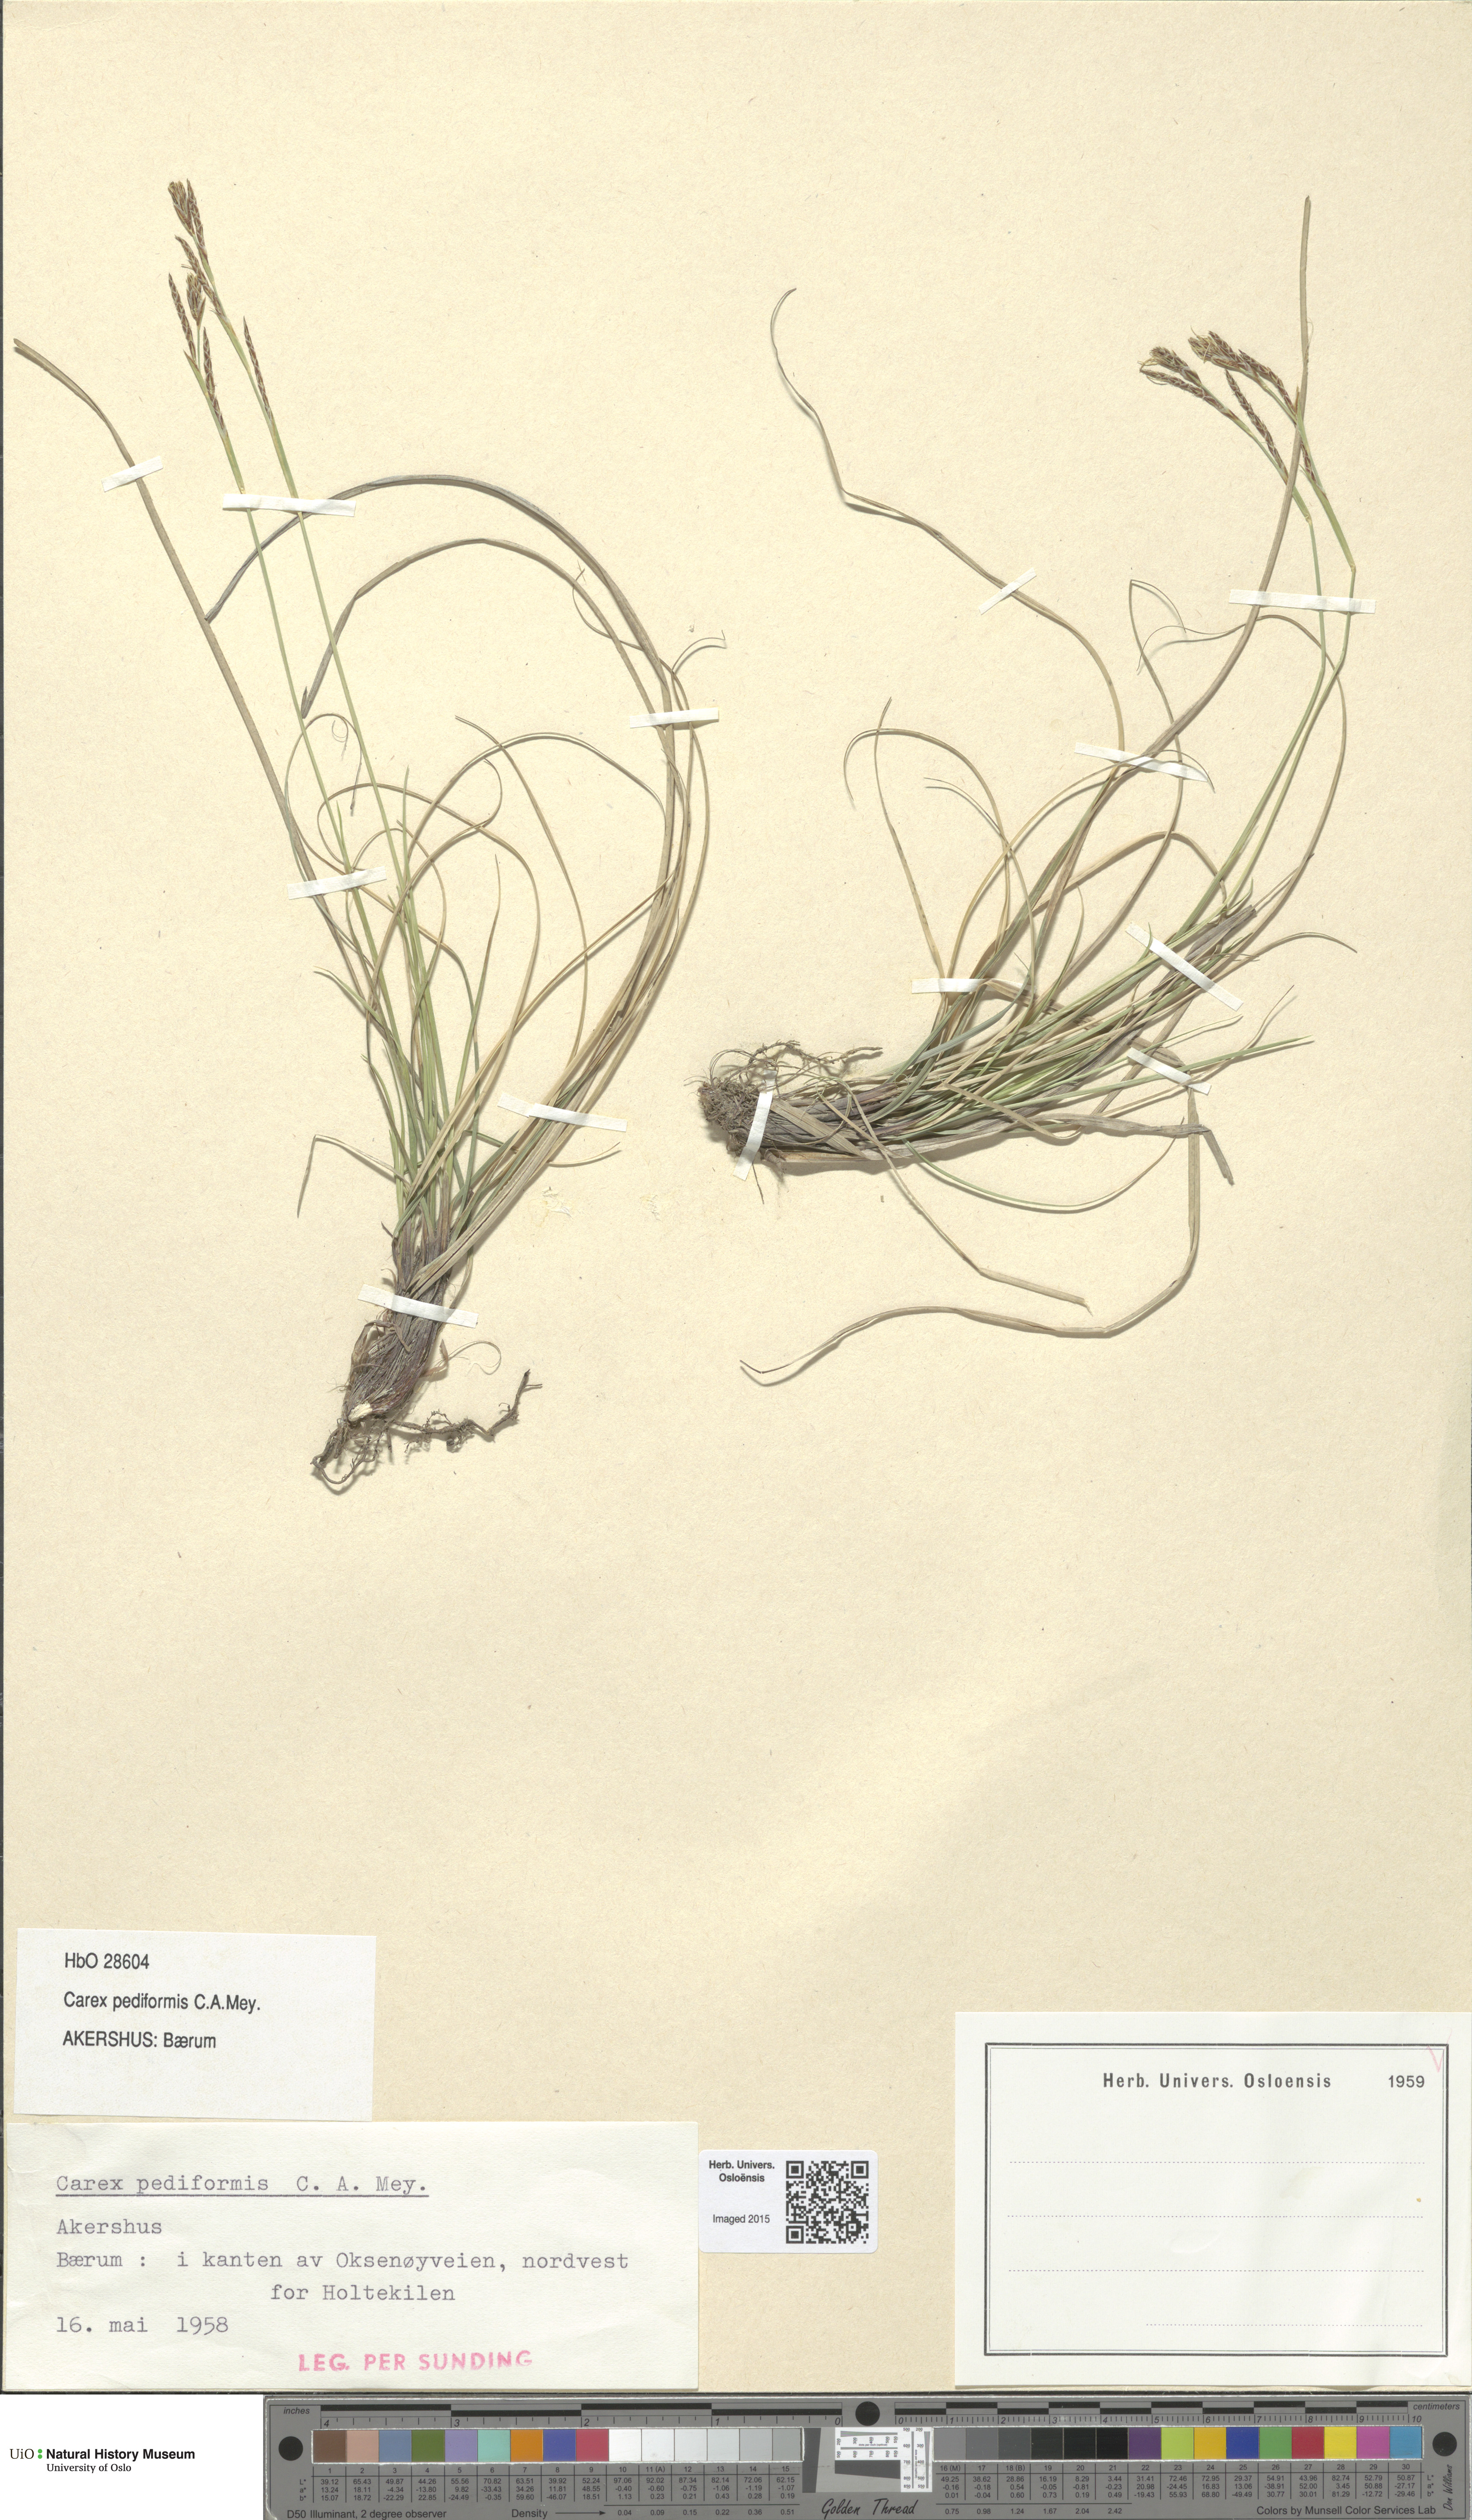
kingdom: Plantae
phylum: Tracheophyta
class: Liliopsida
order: Poales
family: Cyperaceae
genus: Carex
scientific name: Carex rhizina
